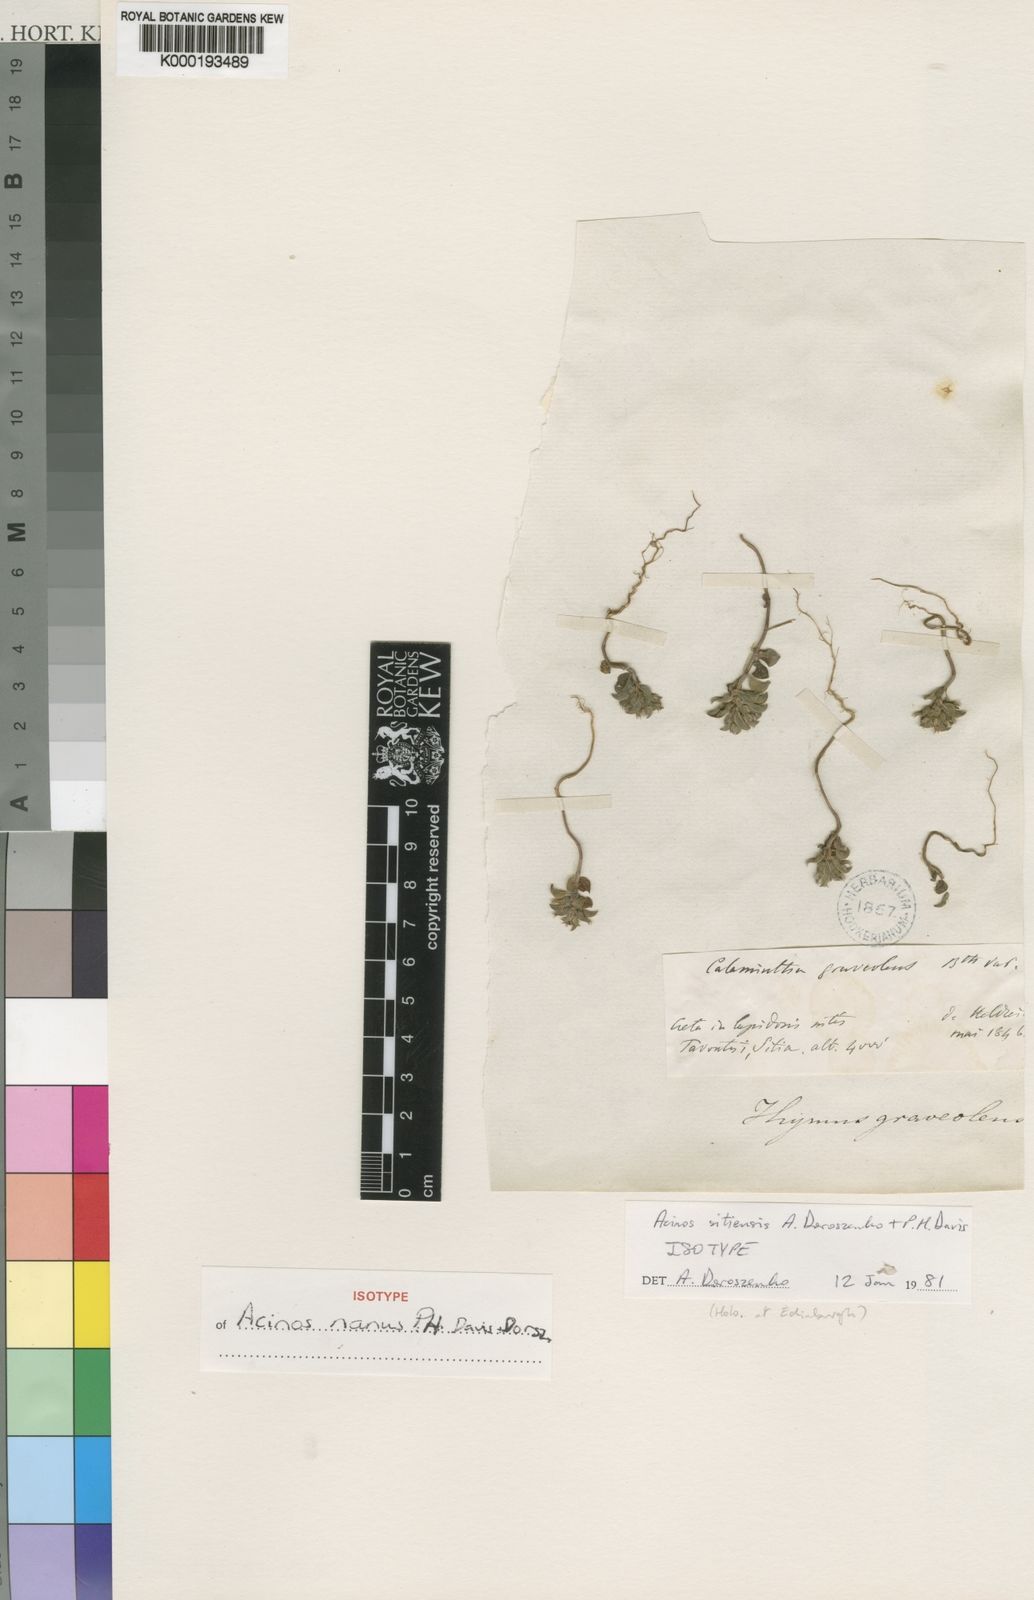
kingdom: Plantae
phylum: Tracheophyta
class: Magnoliopsida
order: Lamiales
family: Lamiaceae
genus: Clinopodium
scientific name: Clinopodium nanum
